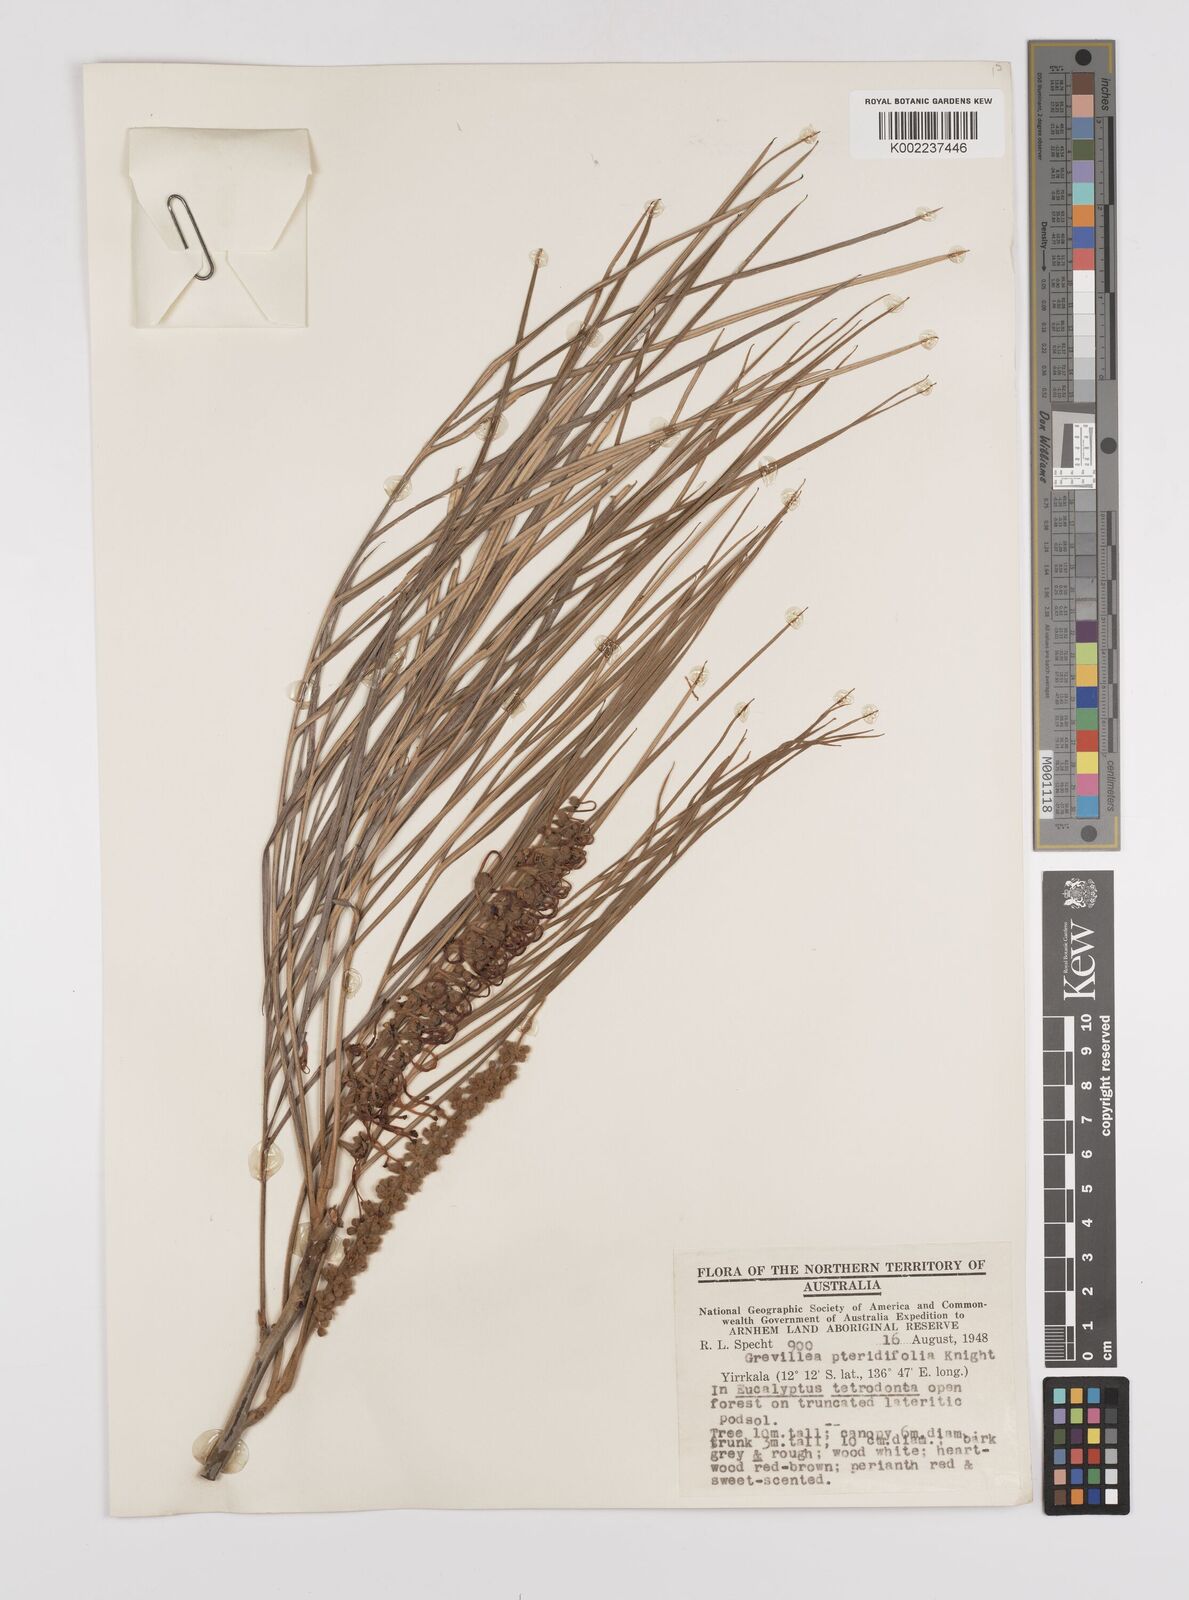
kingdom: Plantae
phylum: Tracheophyta
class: Magnoliopsida
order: Proteales
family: Proteaceae
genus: Grevillea
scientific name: Grevillea pteridifolia
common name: Golden grevillea
